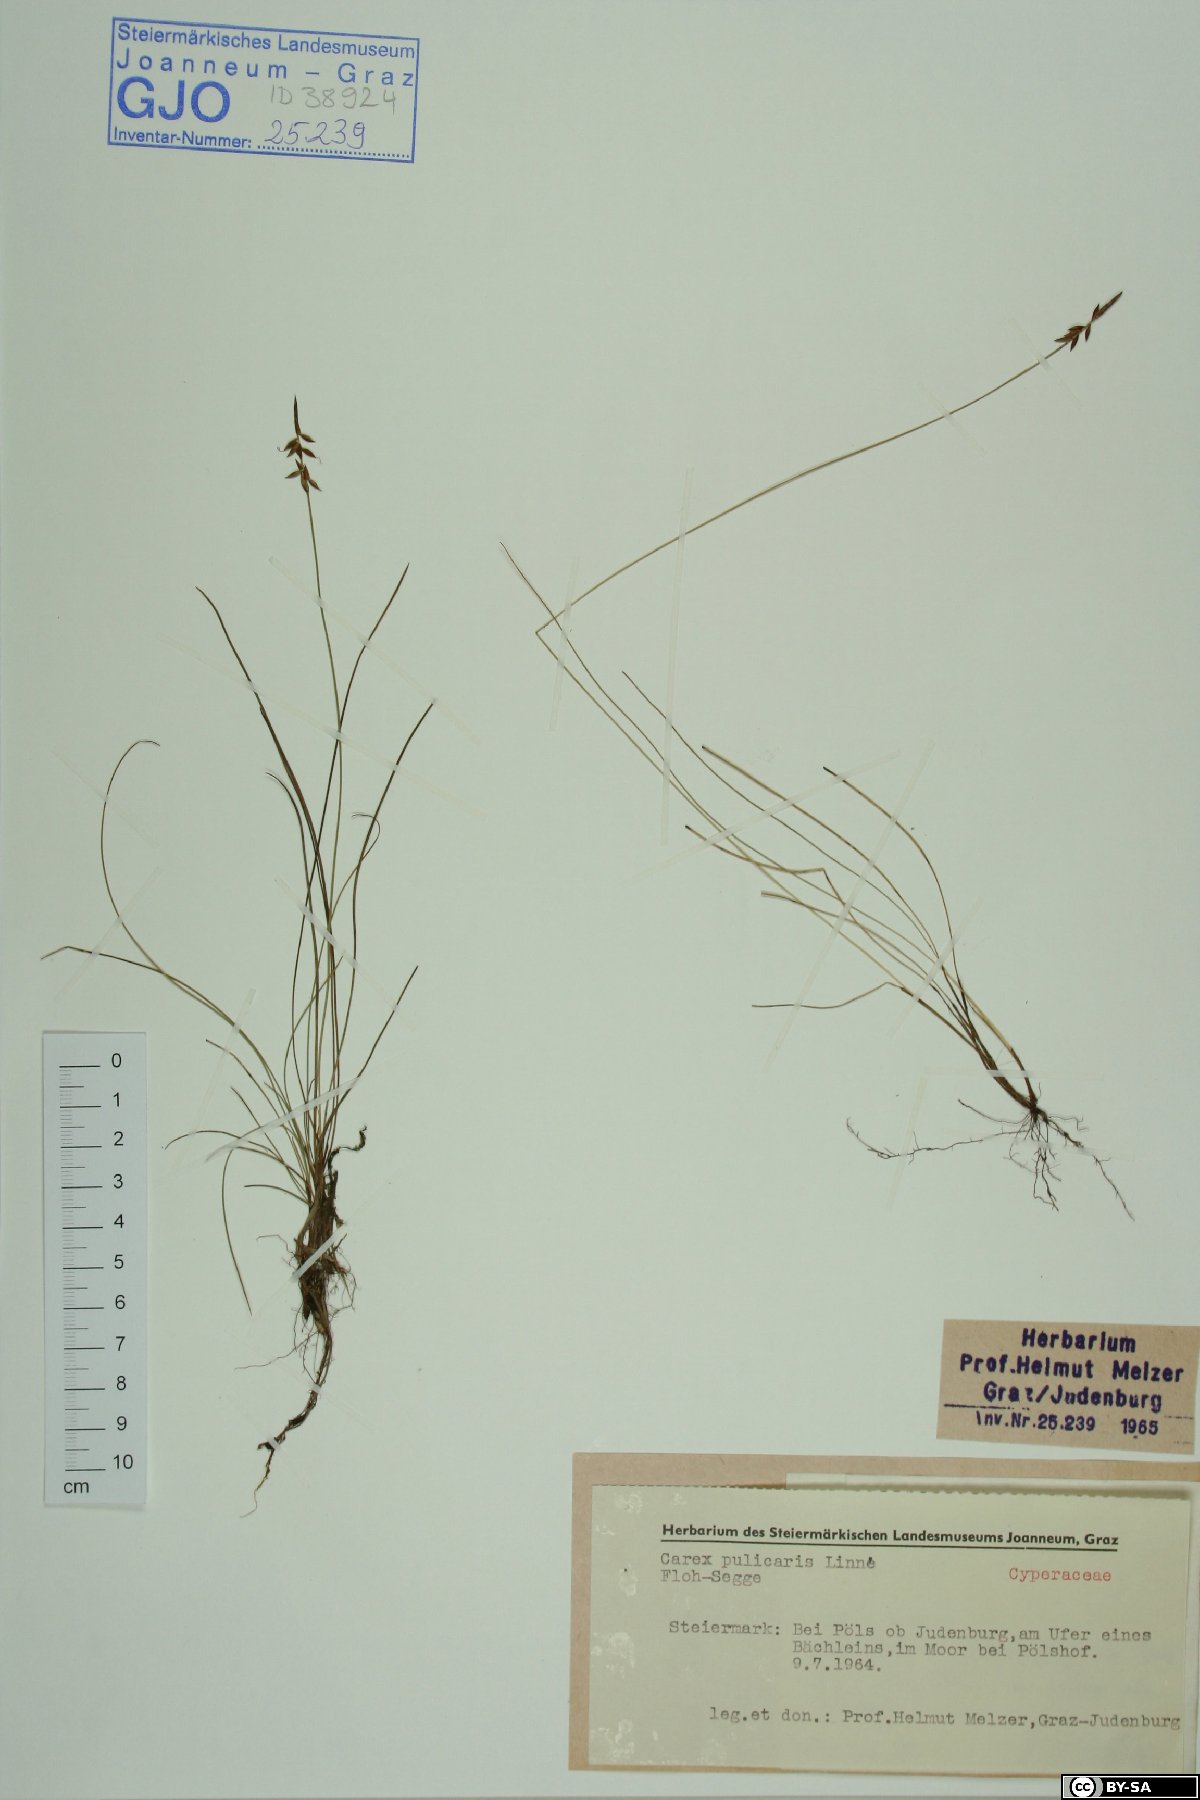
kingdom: Plantae
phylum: Tracheophyta
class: Liliopsida
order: Poales
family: Cyperaceae
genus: Carex
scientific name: Carex pulicaris
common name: Flea sedge
